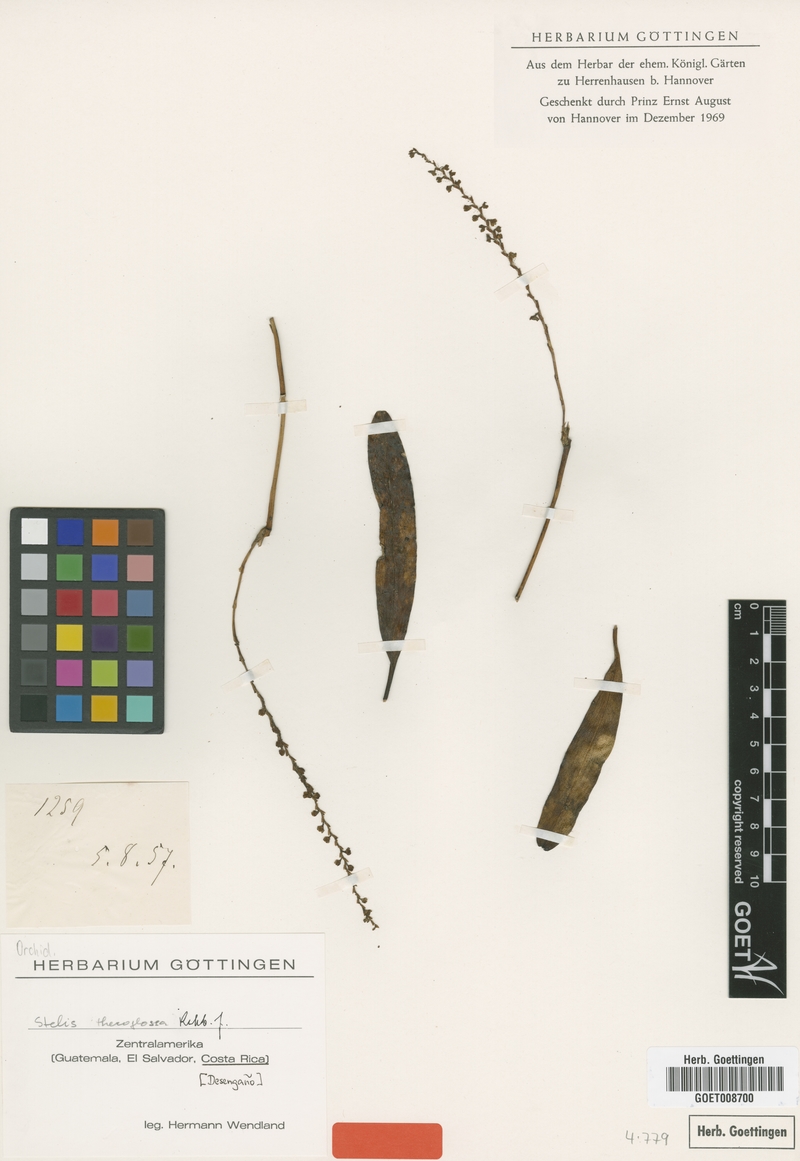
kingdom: Plantae
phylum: Tracheophyta
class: Liliopsida
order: Asparagales
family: Orchidaceae
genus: Stelis
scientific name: Stelis thecoglossa
